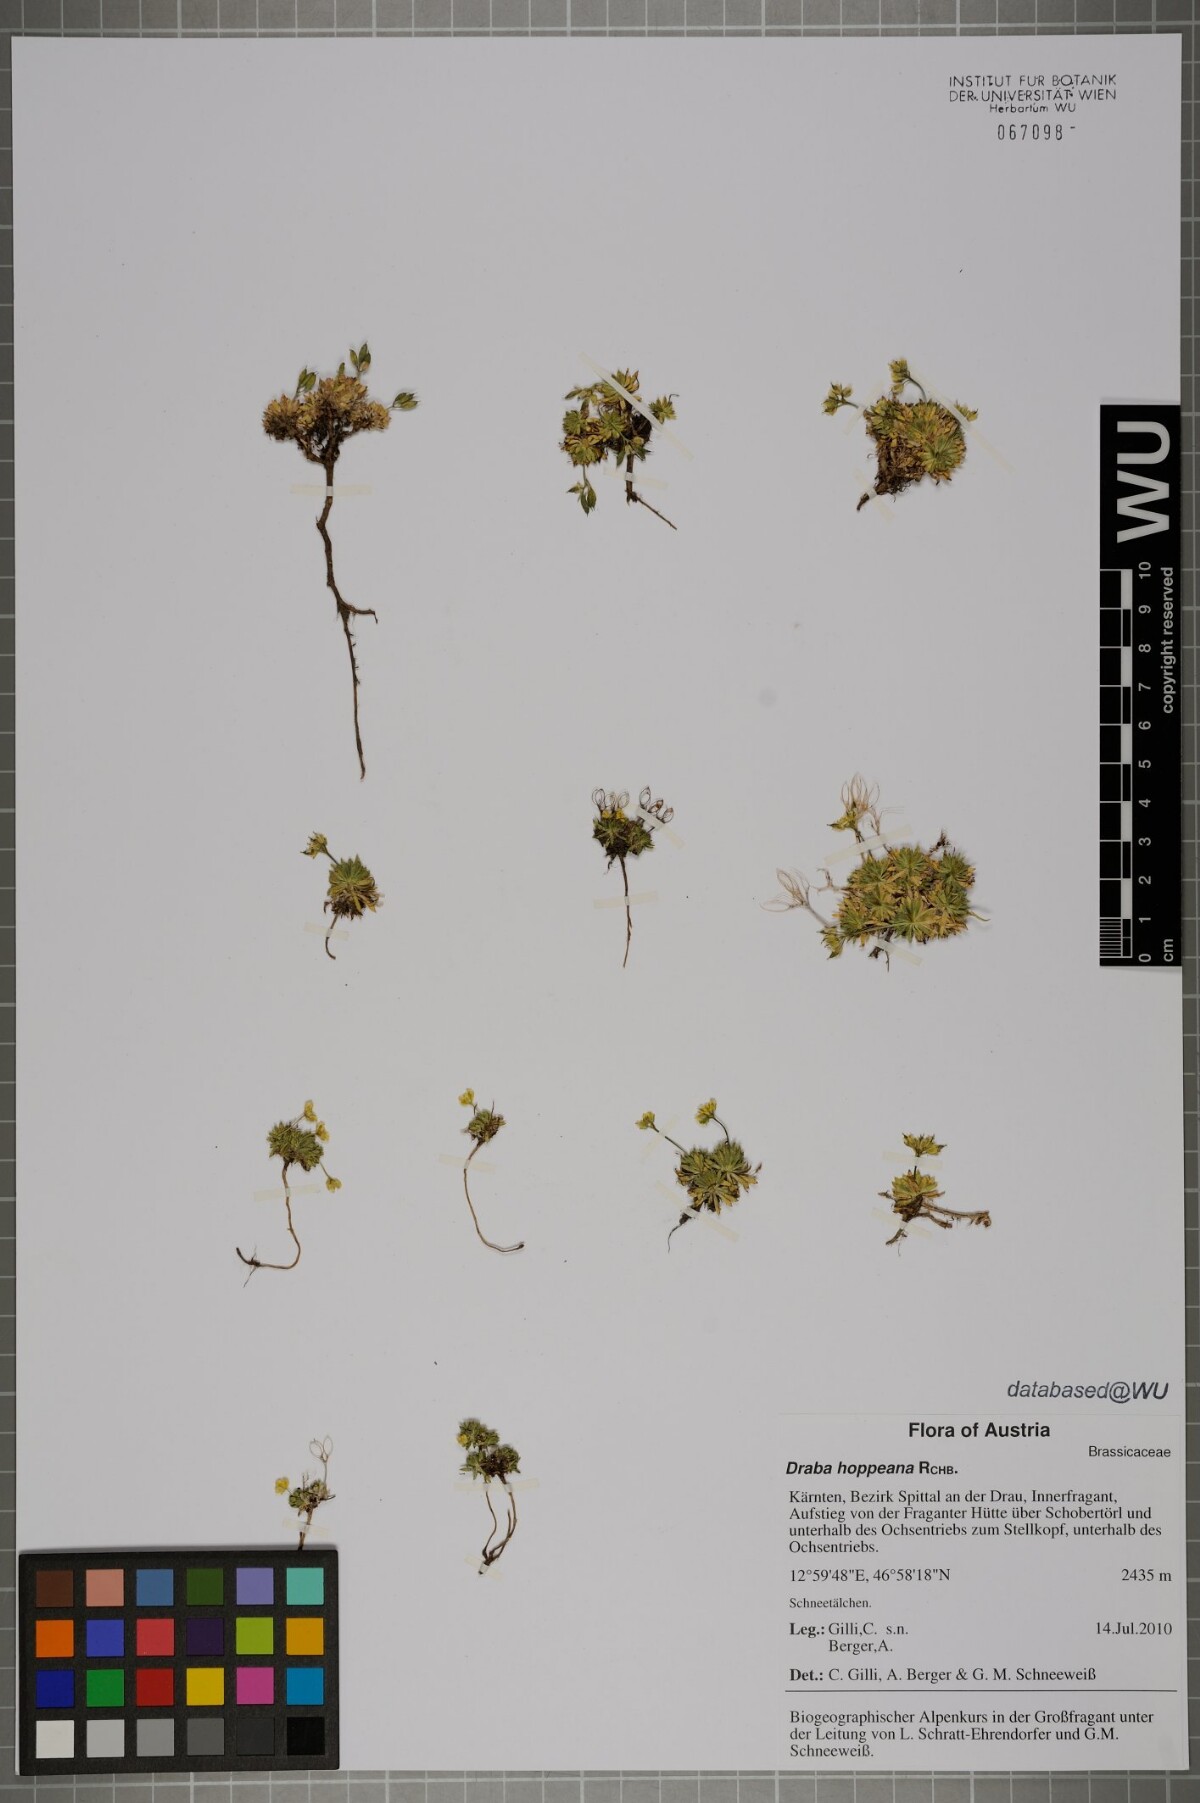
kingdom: Plantae
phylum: Tracheophyta
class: Magnoliopsida
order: Brassicales
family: Brassicaceae
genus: Draba
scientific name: Draba hoppeana
